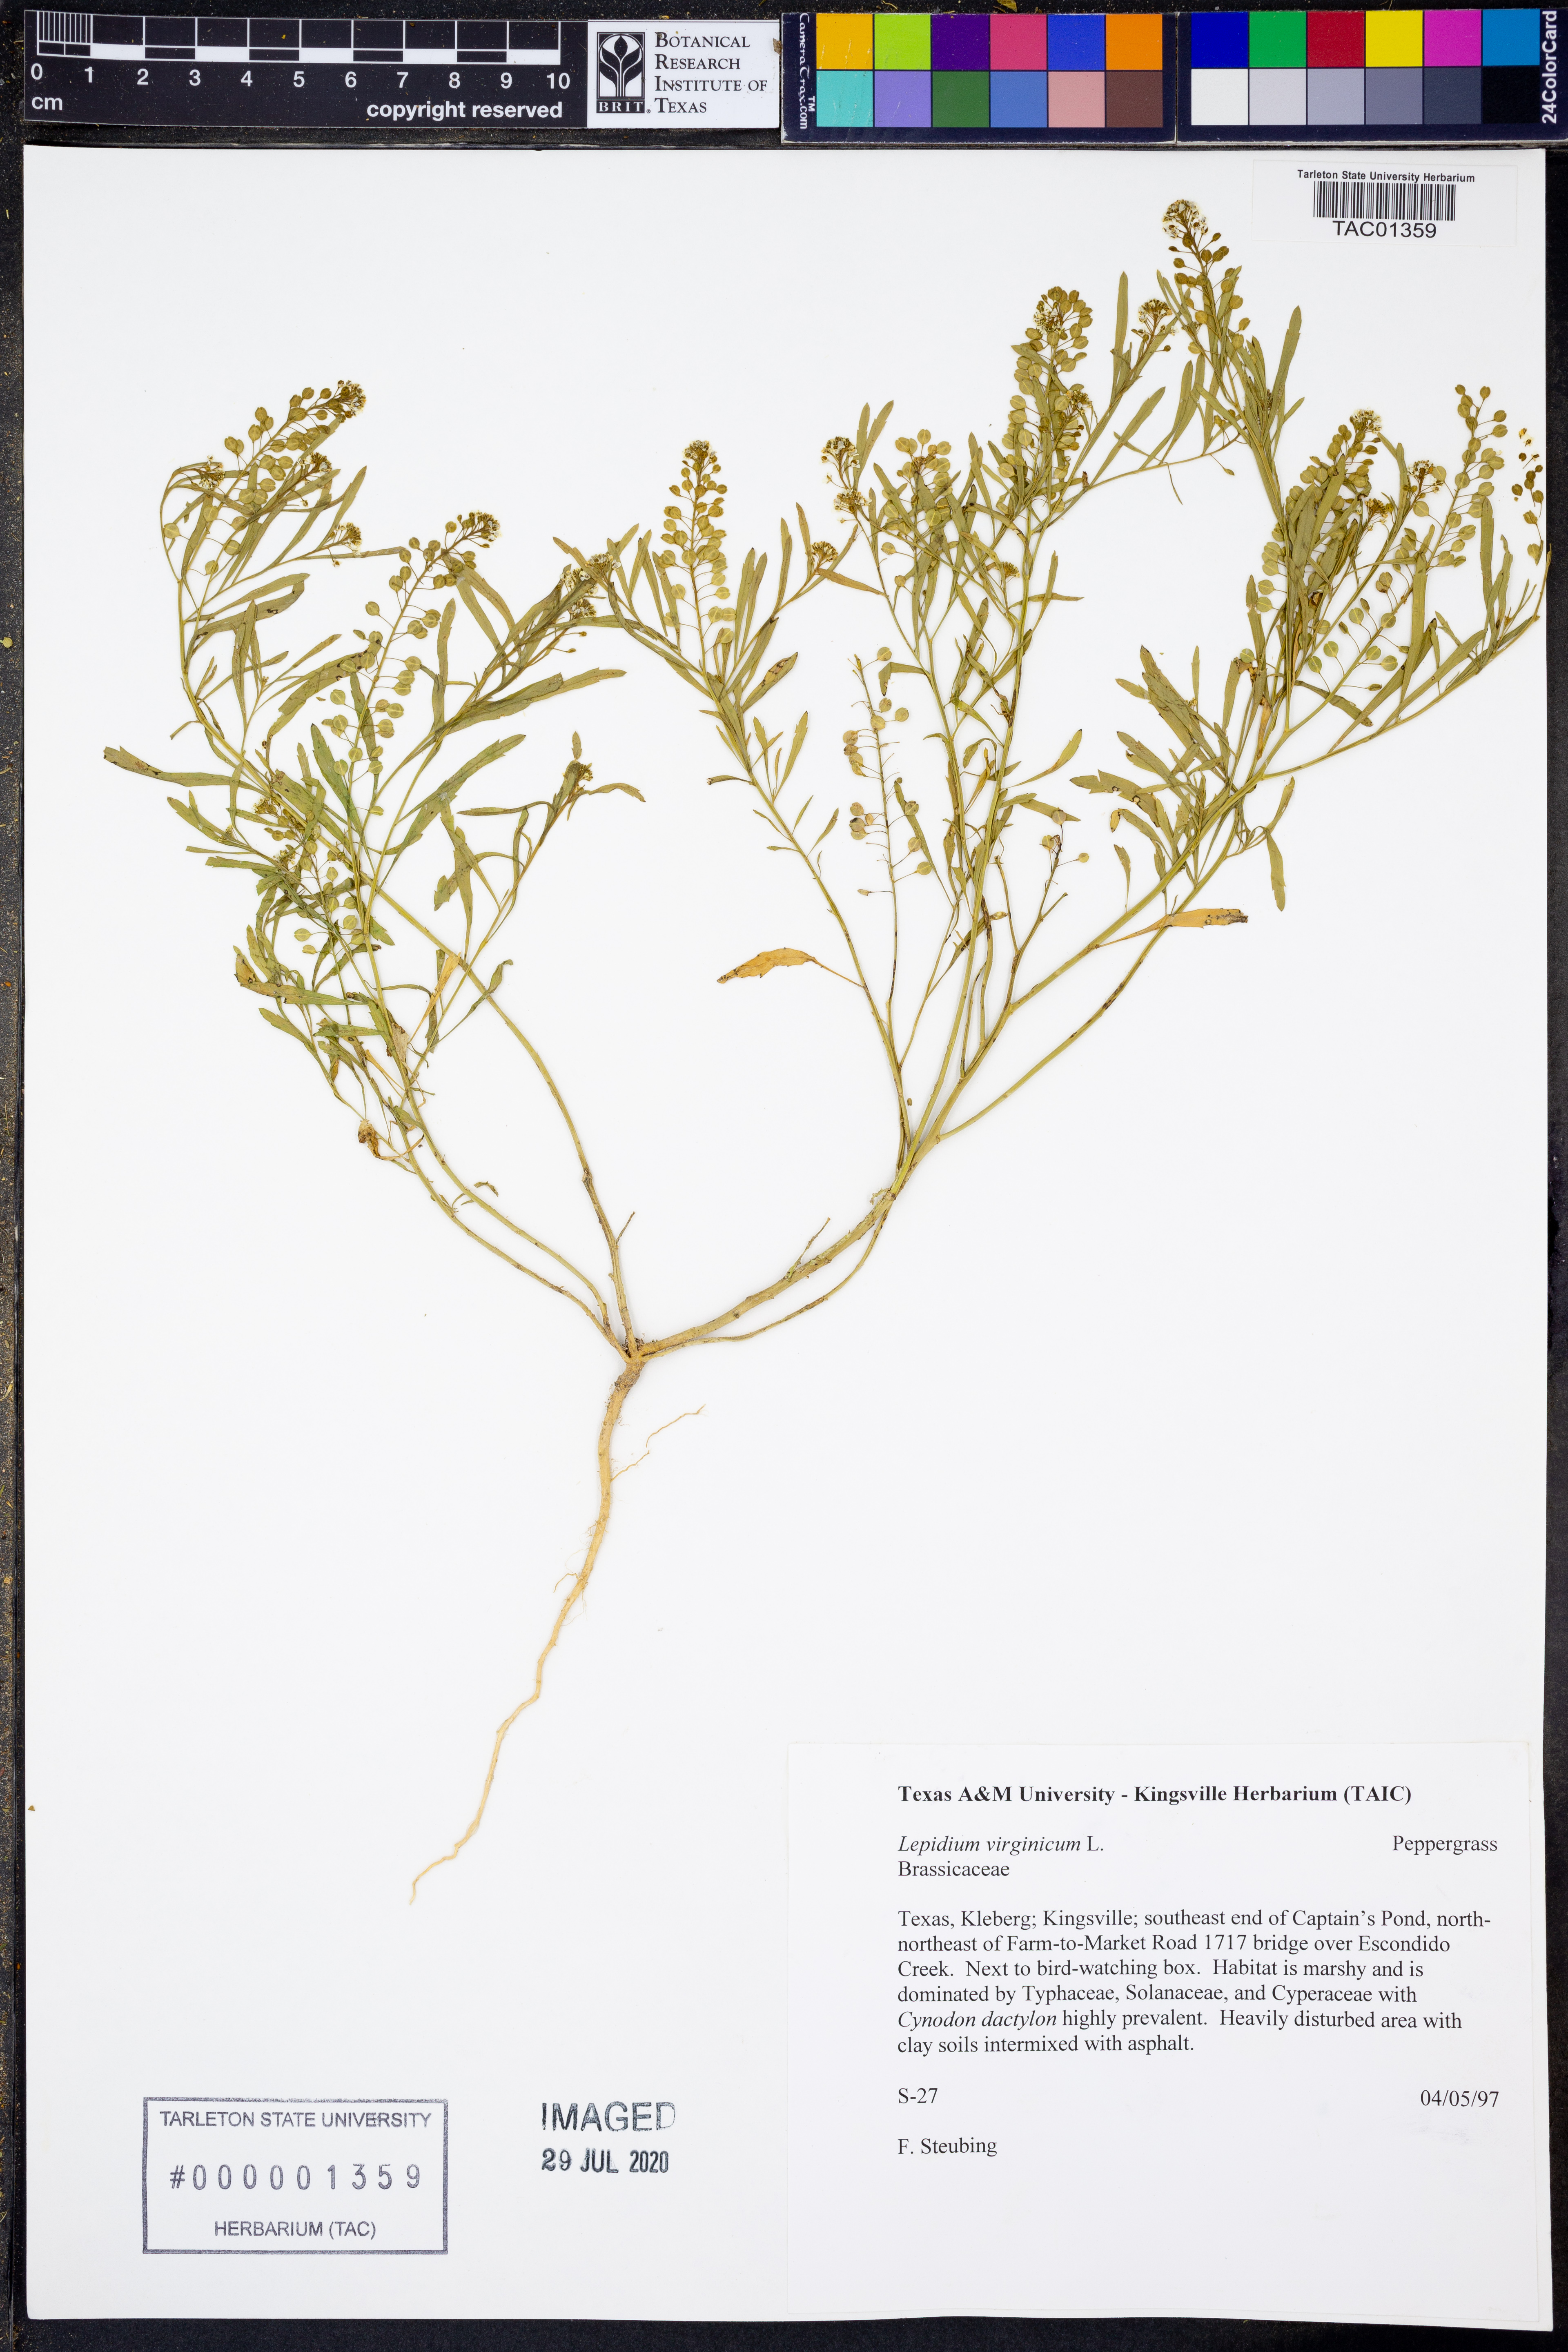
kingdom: Plantae
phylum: Tracheophyta
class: Magnoliopsida
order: Brassicales
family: Brassicaceae
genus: Lepidium
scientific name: Lepidium virginicum
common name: Least pepperwort
